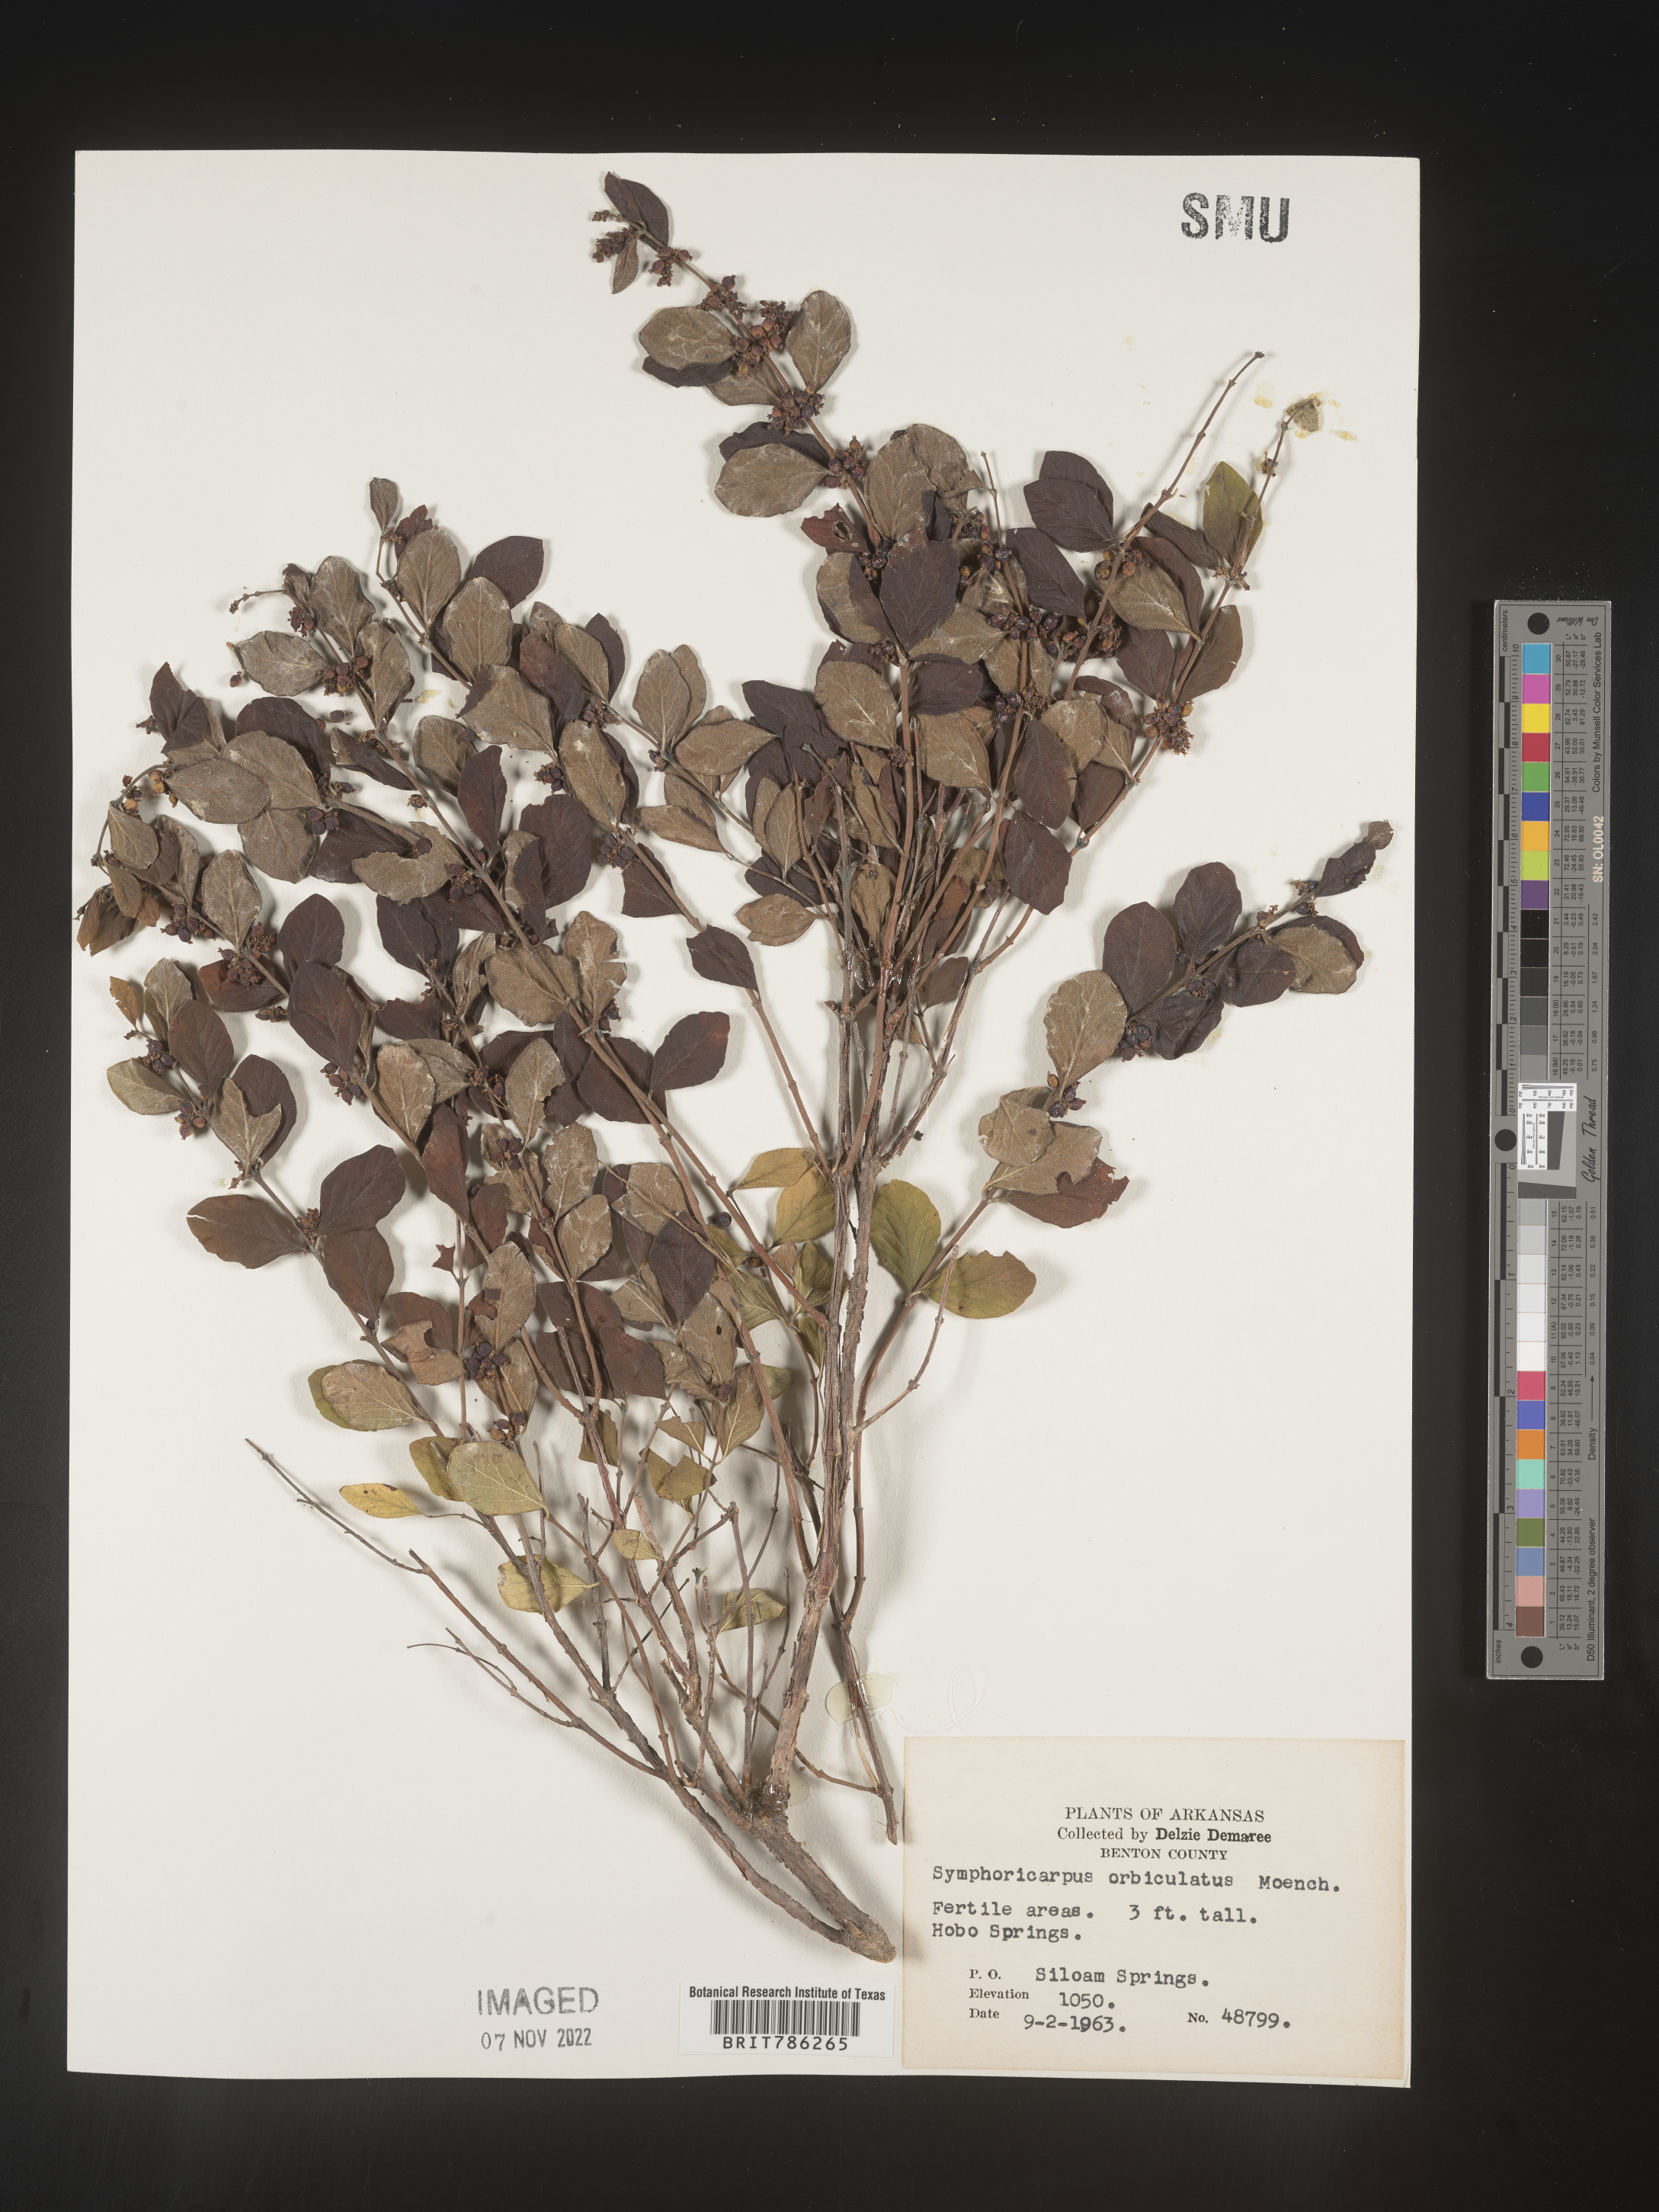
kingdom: Plantae
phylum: Tracheophyta
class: Magnoliopsida
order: Dipsacales
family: Caprifoliaceae
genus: Symphoricarpos
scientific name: Symphoricarpos orbiculatus
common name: Coralberry
